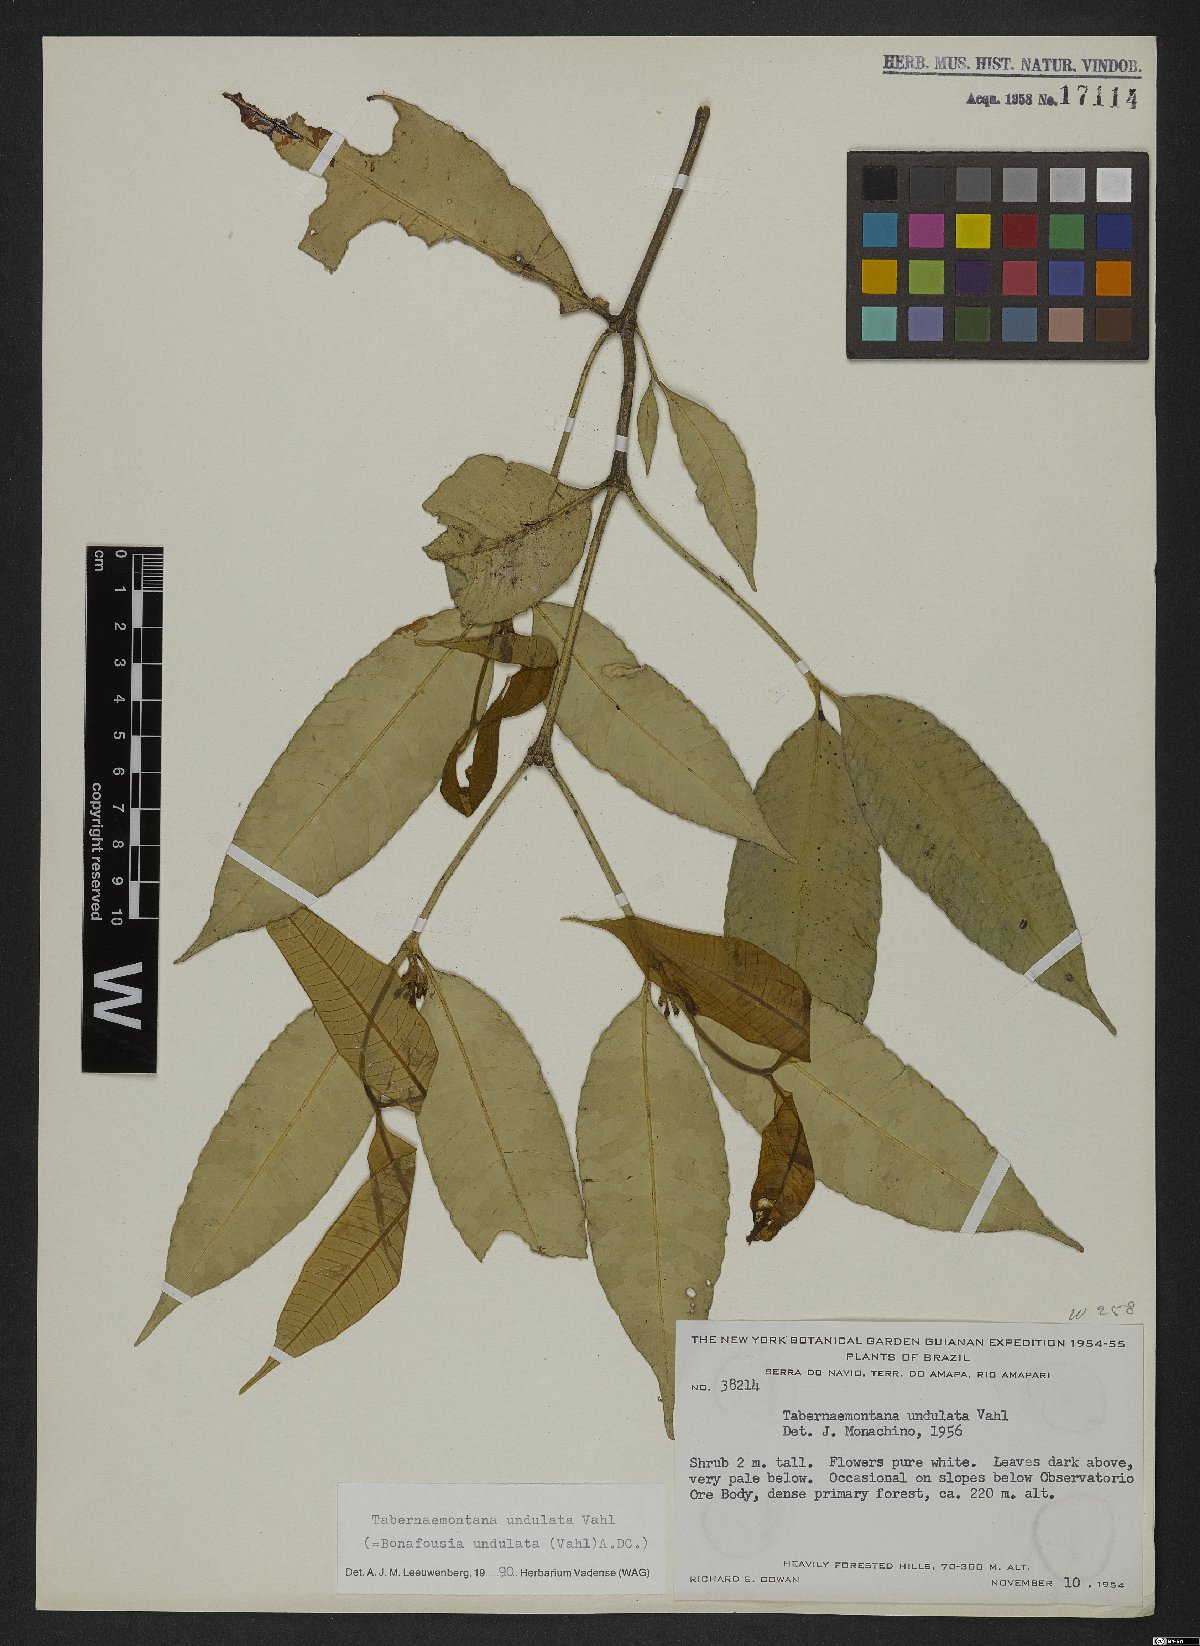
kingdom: Plantae
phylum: Tracheophyta
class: Magnoliopsida
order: Gentianales
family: Apocynaceae
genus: Tabernaemontana
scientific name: Tabernaemontana undulata
